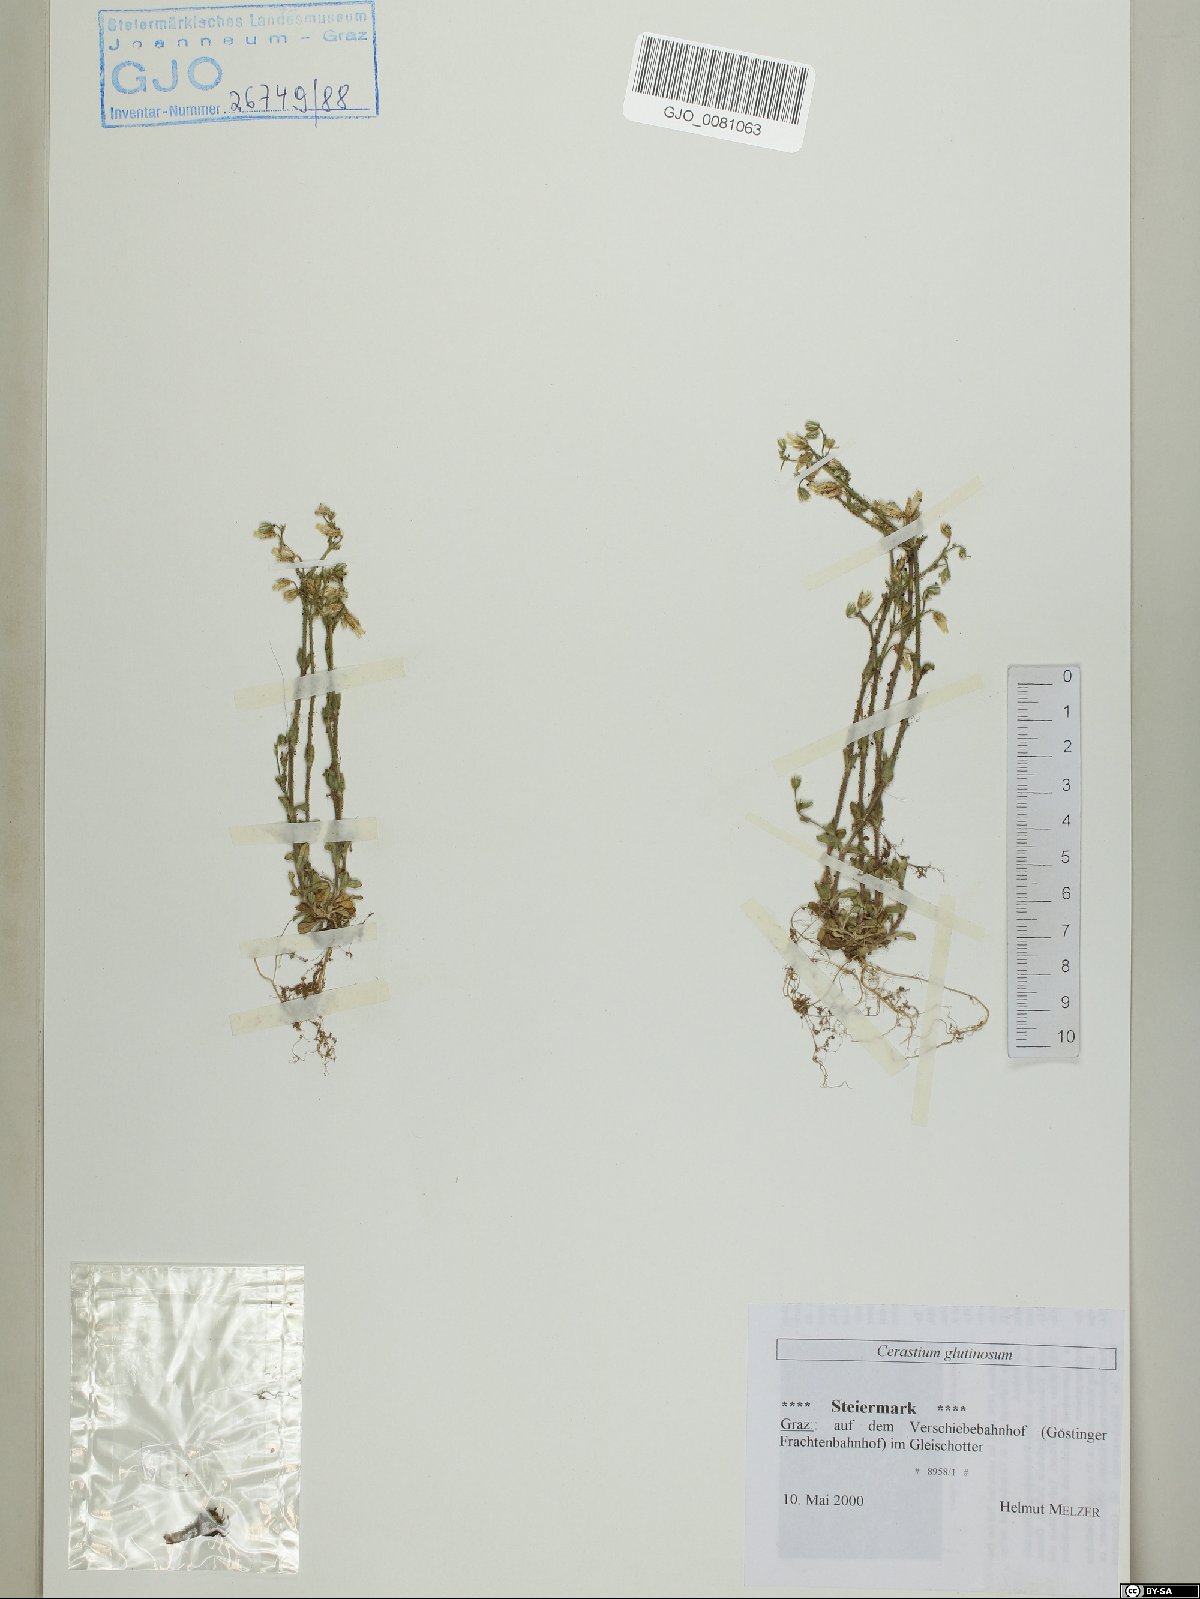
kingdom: Plantae
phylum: Tracheophyta
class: Magnoliopsida
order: Caryophyllales
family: Caryophyllaceae
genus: Cerastium
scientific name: Cerastium glutinosum
